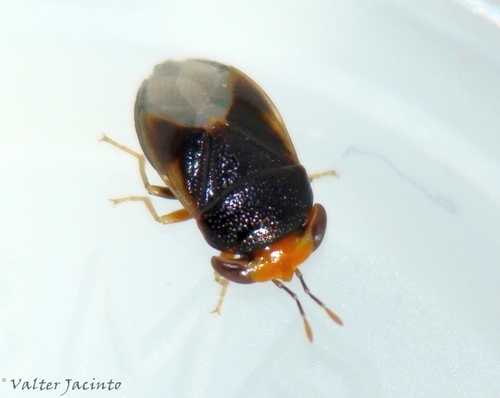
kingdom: Animalia
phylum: Arthropoda
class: Insecta
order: Hemiptera
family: Geocoridae
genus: Geocoris
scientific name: Geocoris erythrocephala
